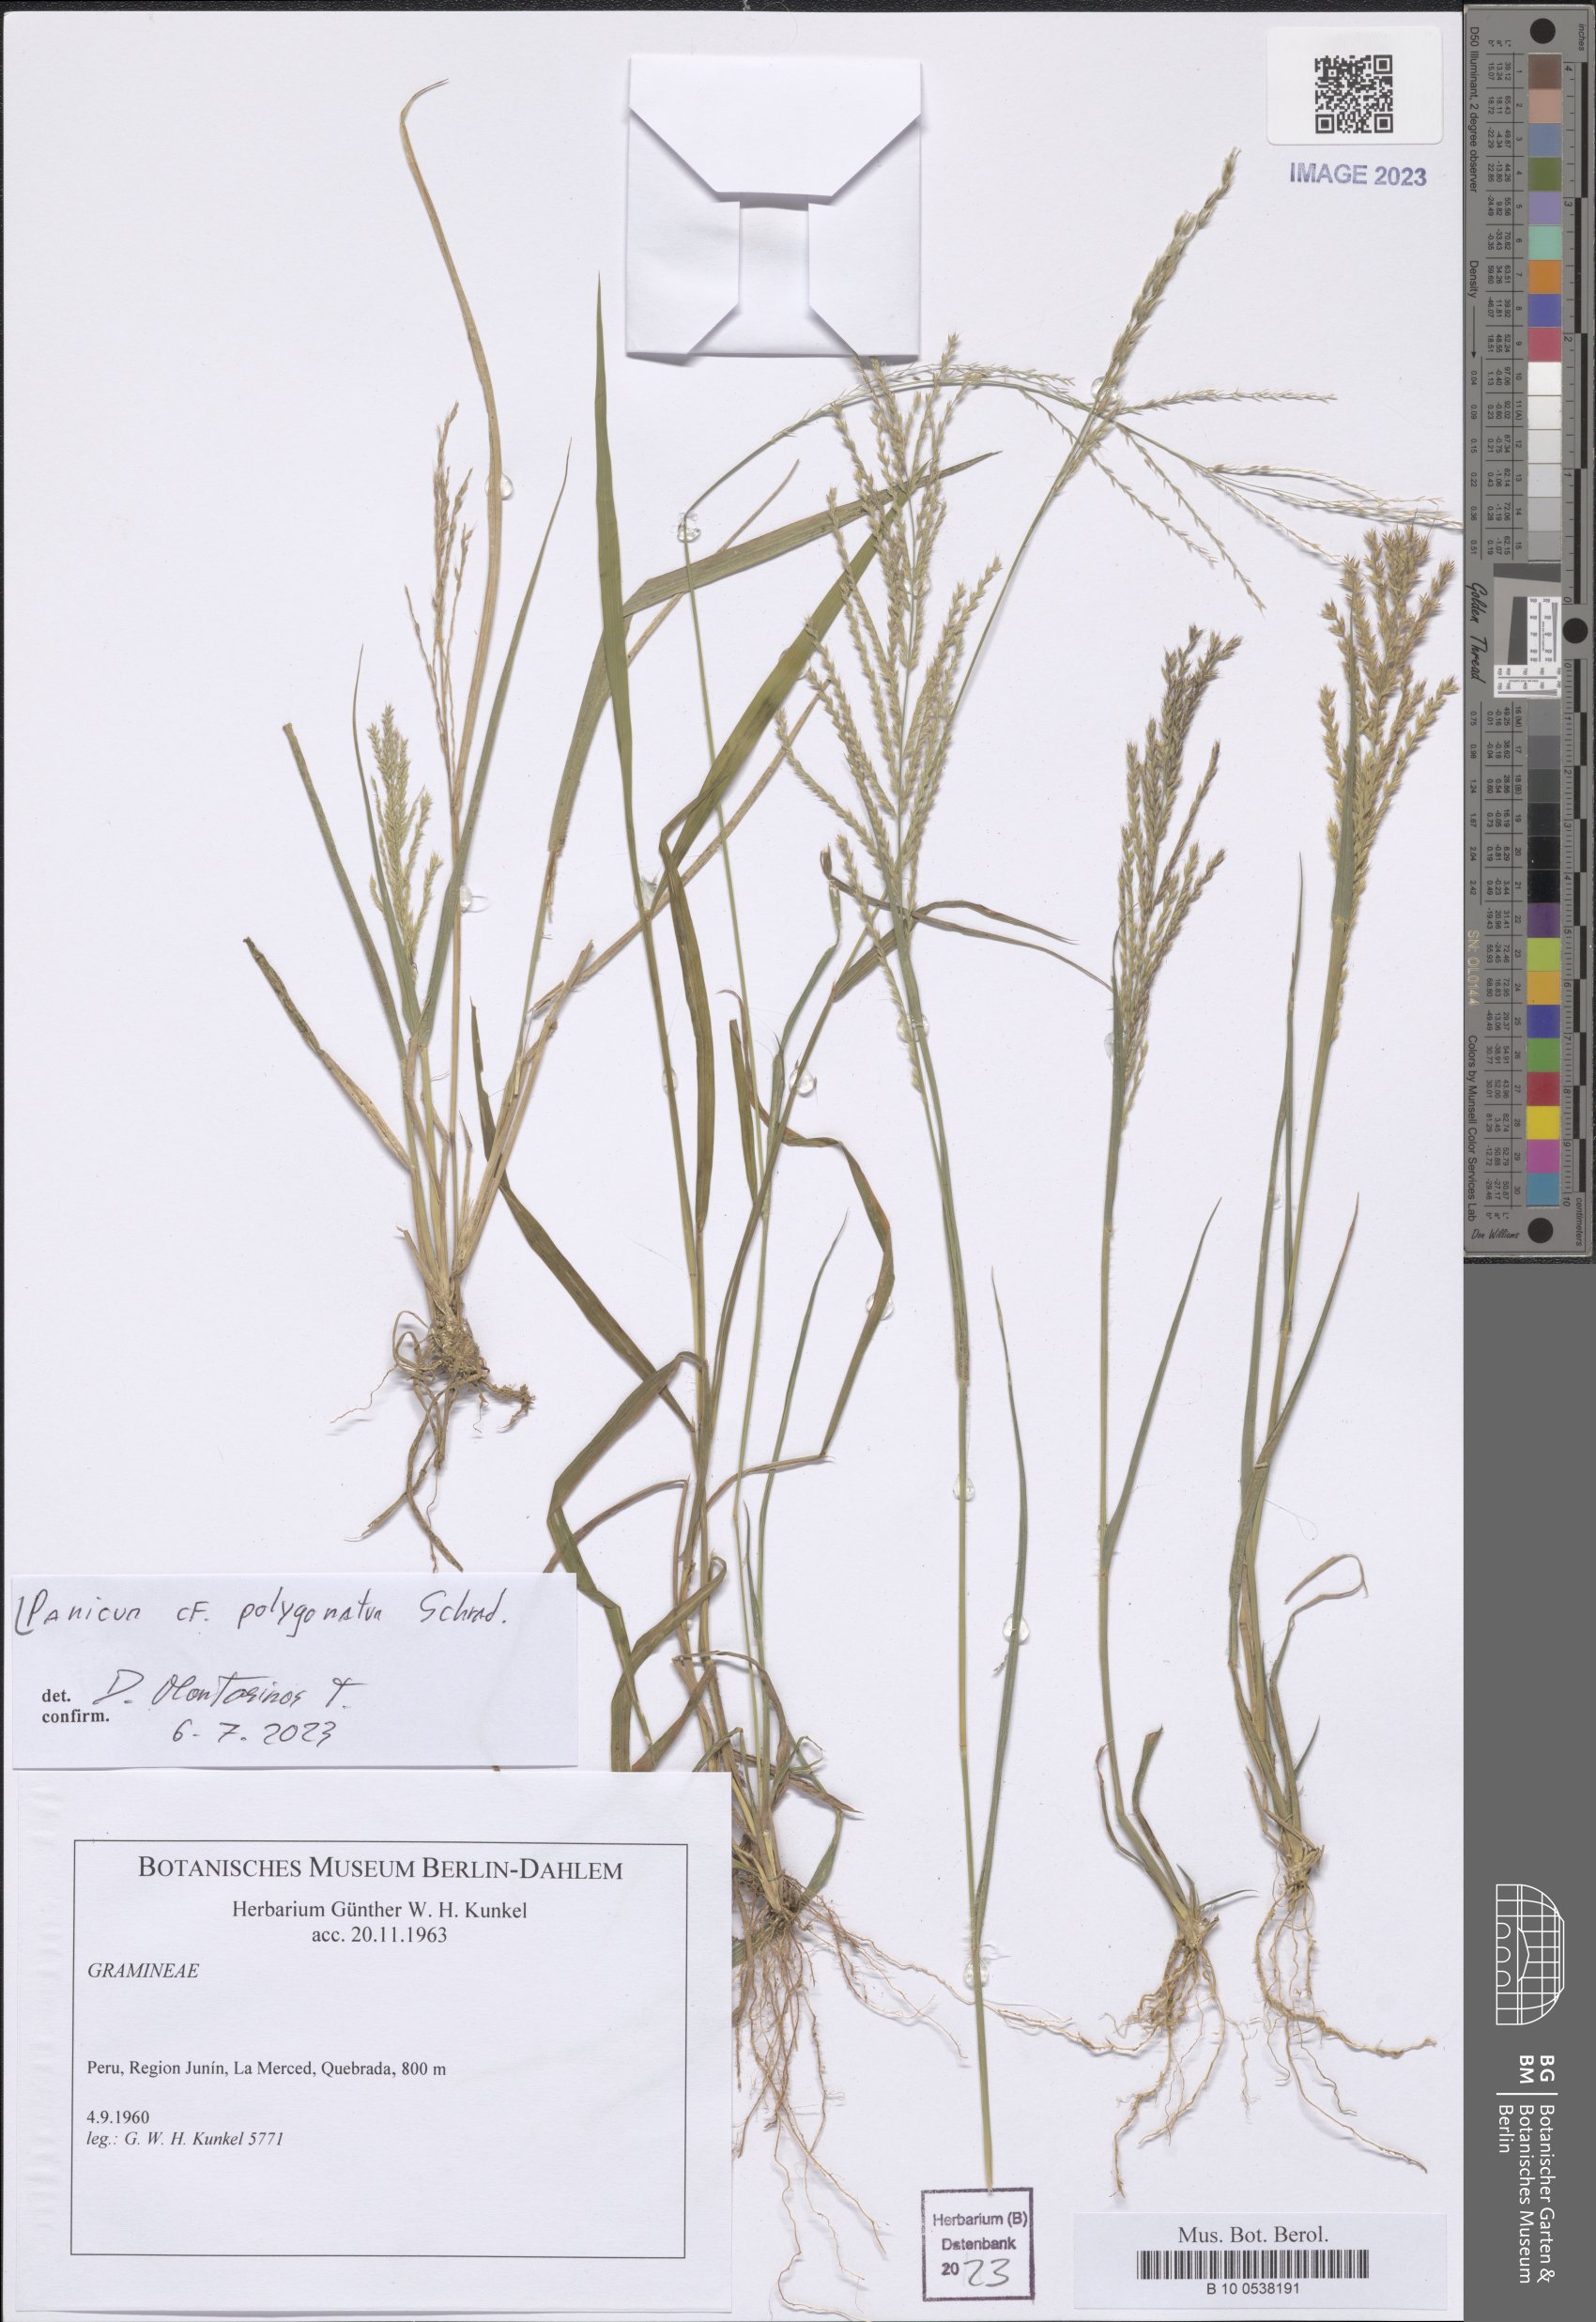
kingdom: Plantae
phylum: Tracheophyta
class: Liliopsida
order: Poales
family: Poaceae
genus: Rugoloa
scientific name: Rugoloa polygonata
